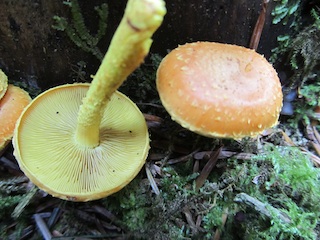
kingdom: Fungi
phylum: Basidiomycota
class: Agaricomycetes
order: Agaricales
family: Strophariaceae
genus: Pholiota
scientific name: Pholiota flammans
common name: flamme-skælhat
